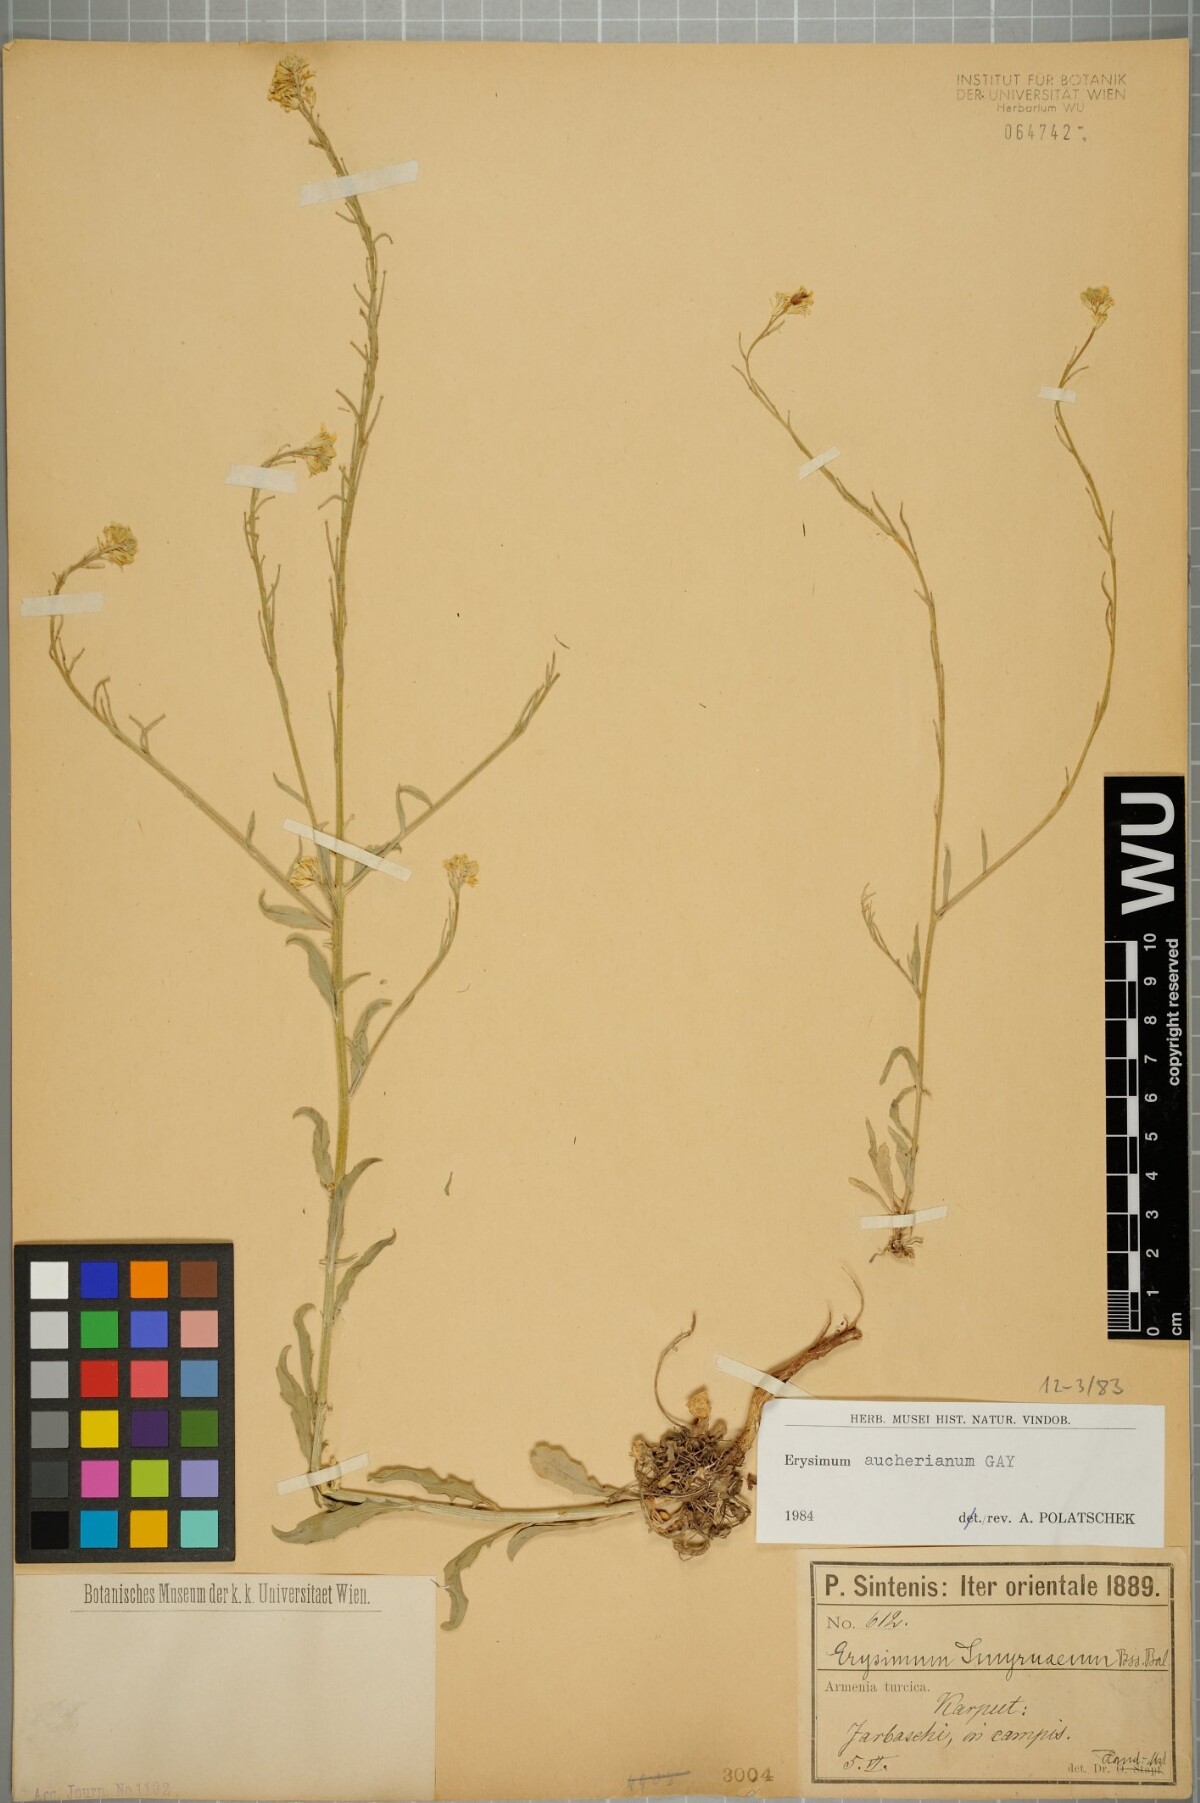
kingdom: Plantae
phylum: Tracheophyta
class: Magnoliopsida
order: Brassicales
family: Brassicaceae
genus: Erysimum
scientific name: Erysimum aucherianum
